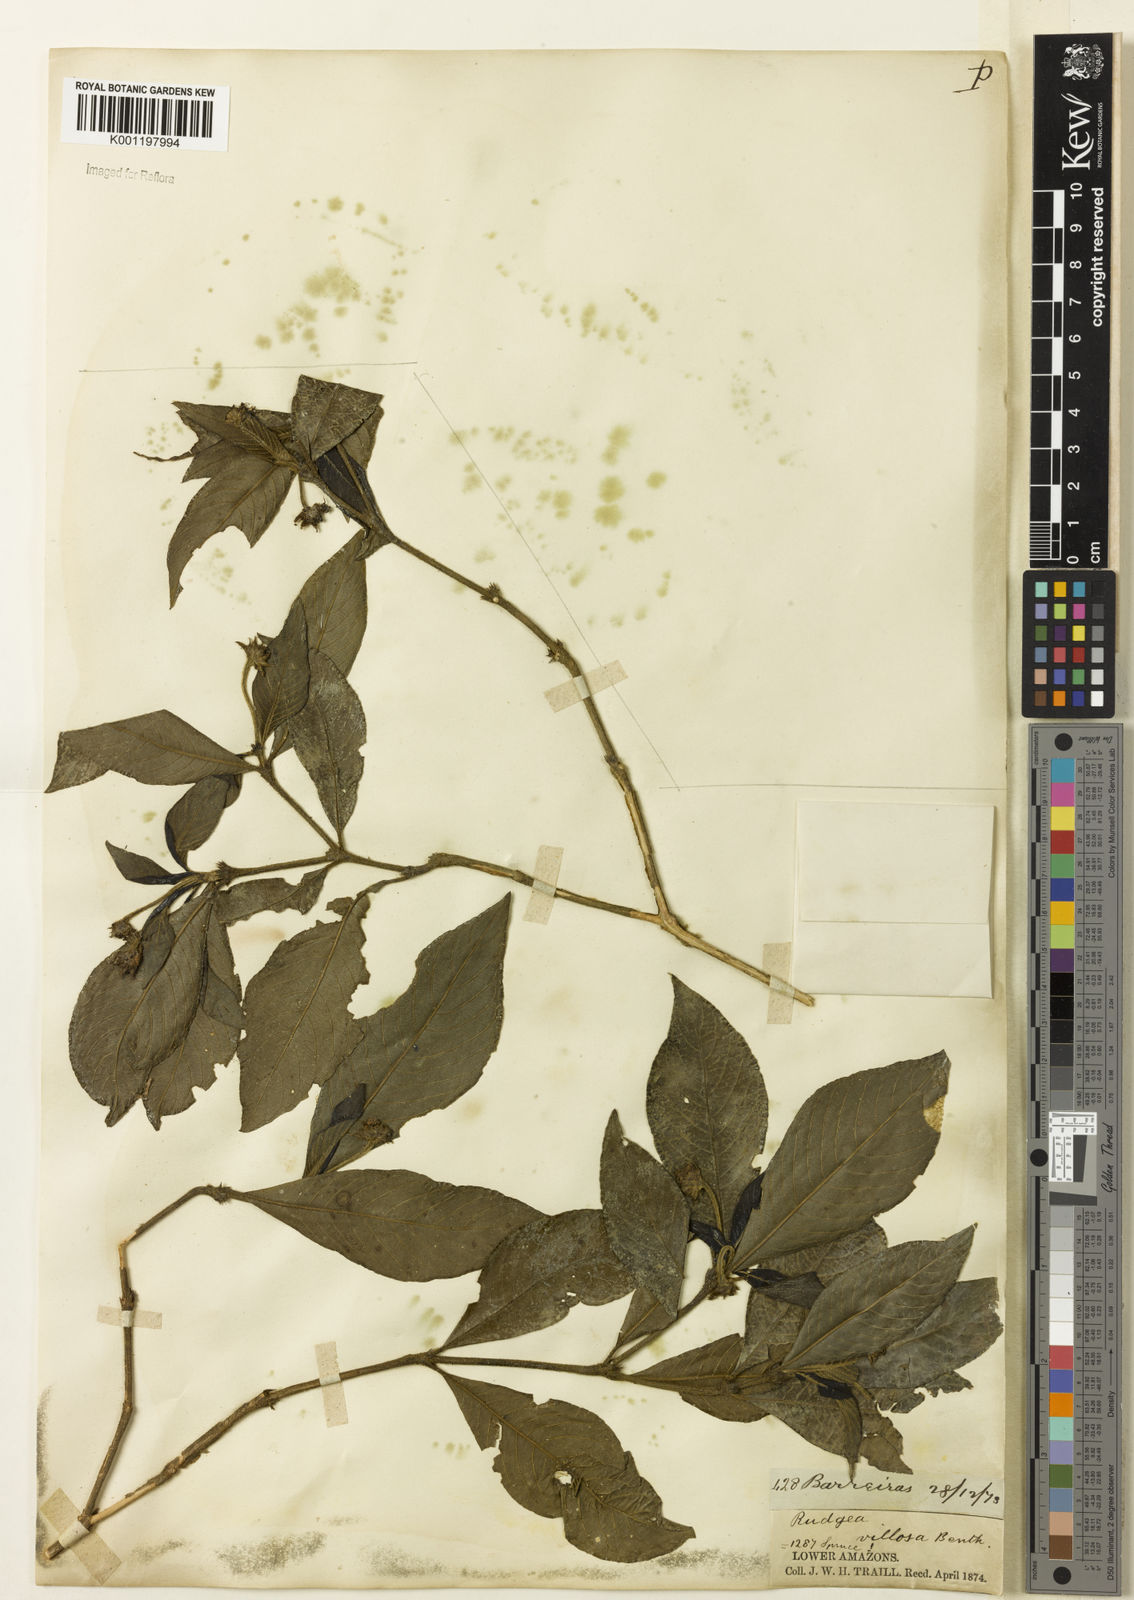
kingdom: Plantae
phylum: Tracheophyta
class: Magnoliopsida
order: Gentianales
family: Rubiaceae
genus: Psychotria
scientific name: Psychotria
